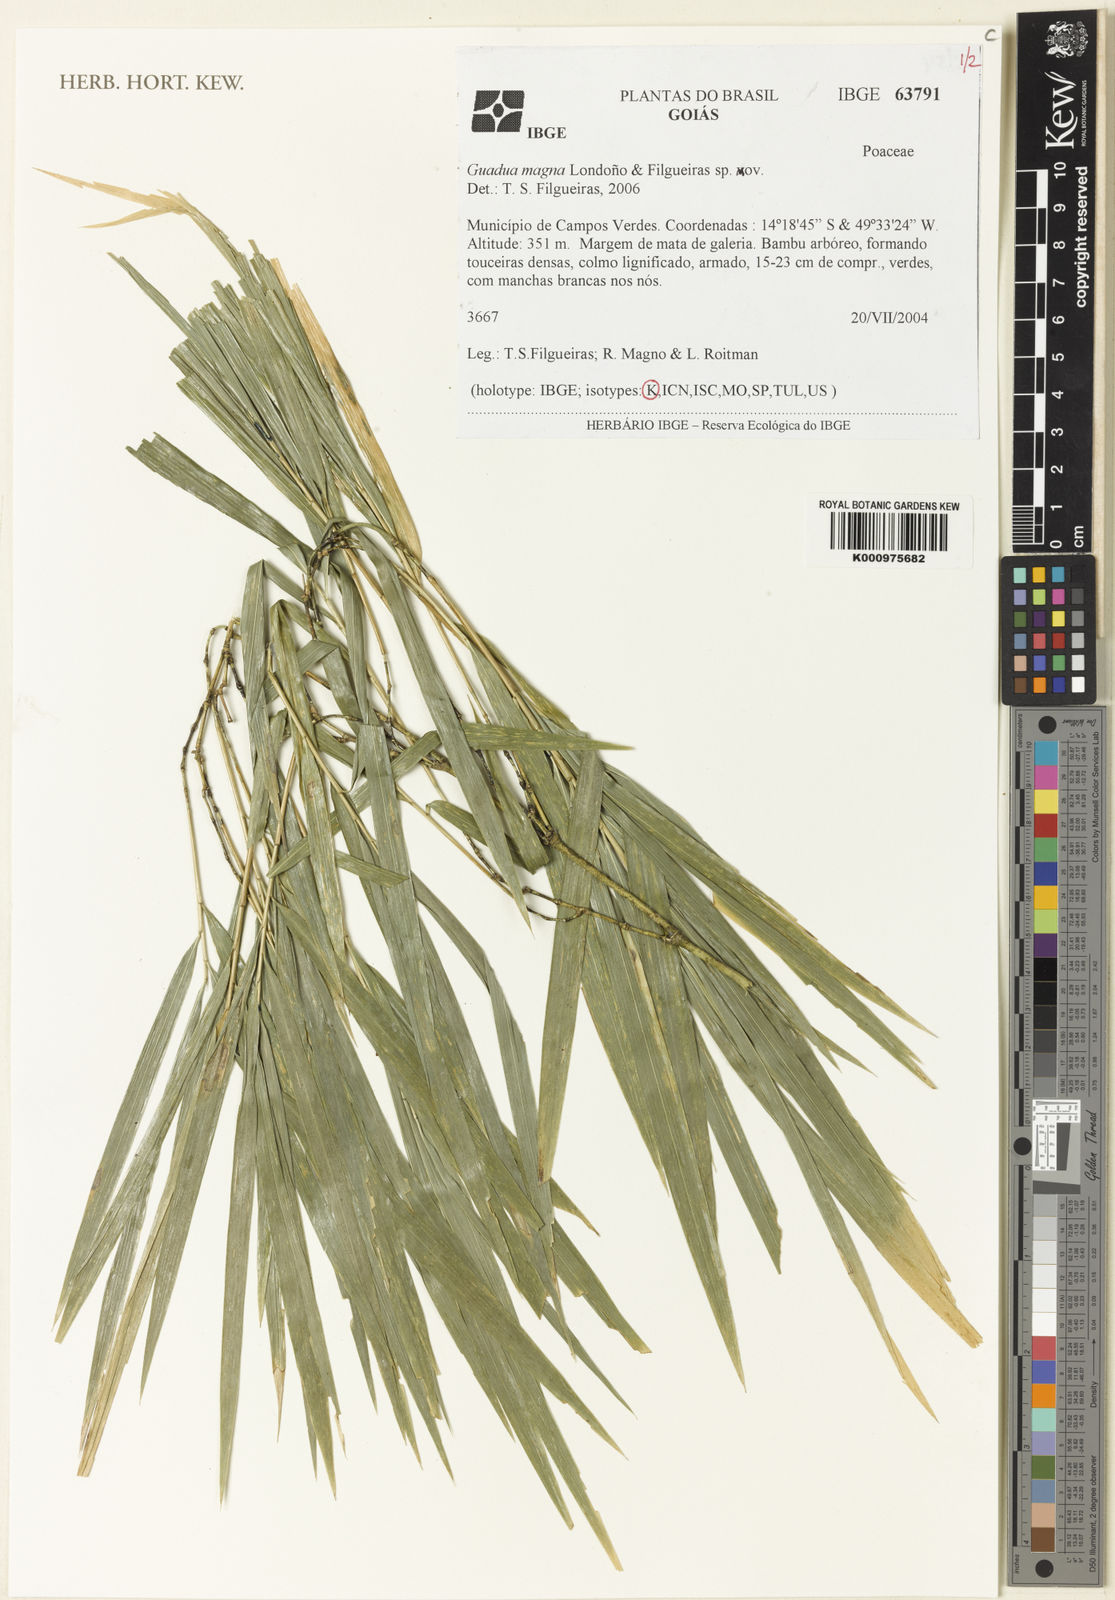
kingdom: Plantae
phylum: Tracheophyta
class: Liliopsida
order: Poales
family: Poaceae
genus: Guadua
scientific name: Guadua magna
